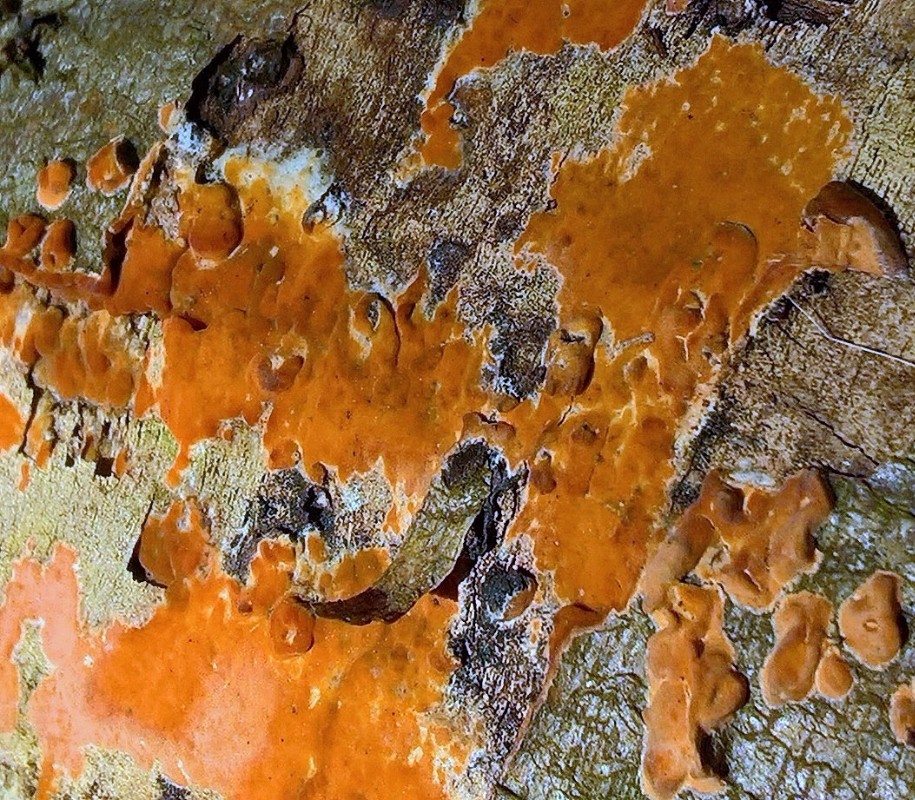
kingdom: Fungi
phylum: Basidiomycota
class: Agaricomycetes
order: Corticiales
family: Corticiaceae
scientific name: Corticiaceae
